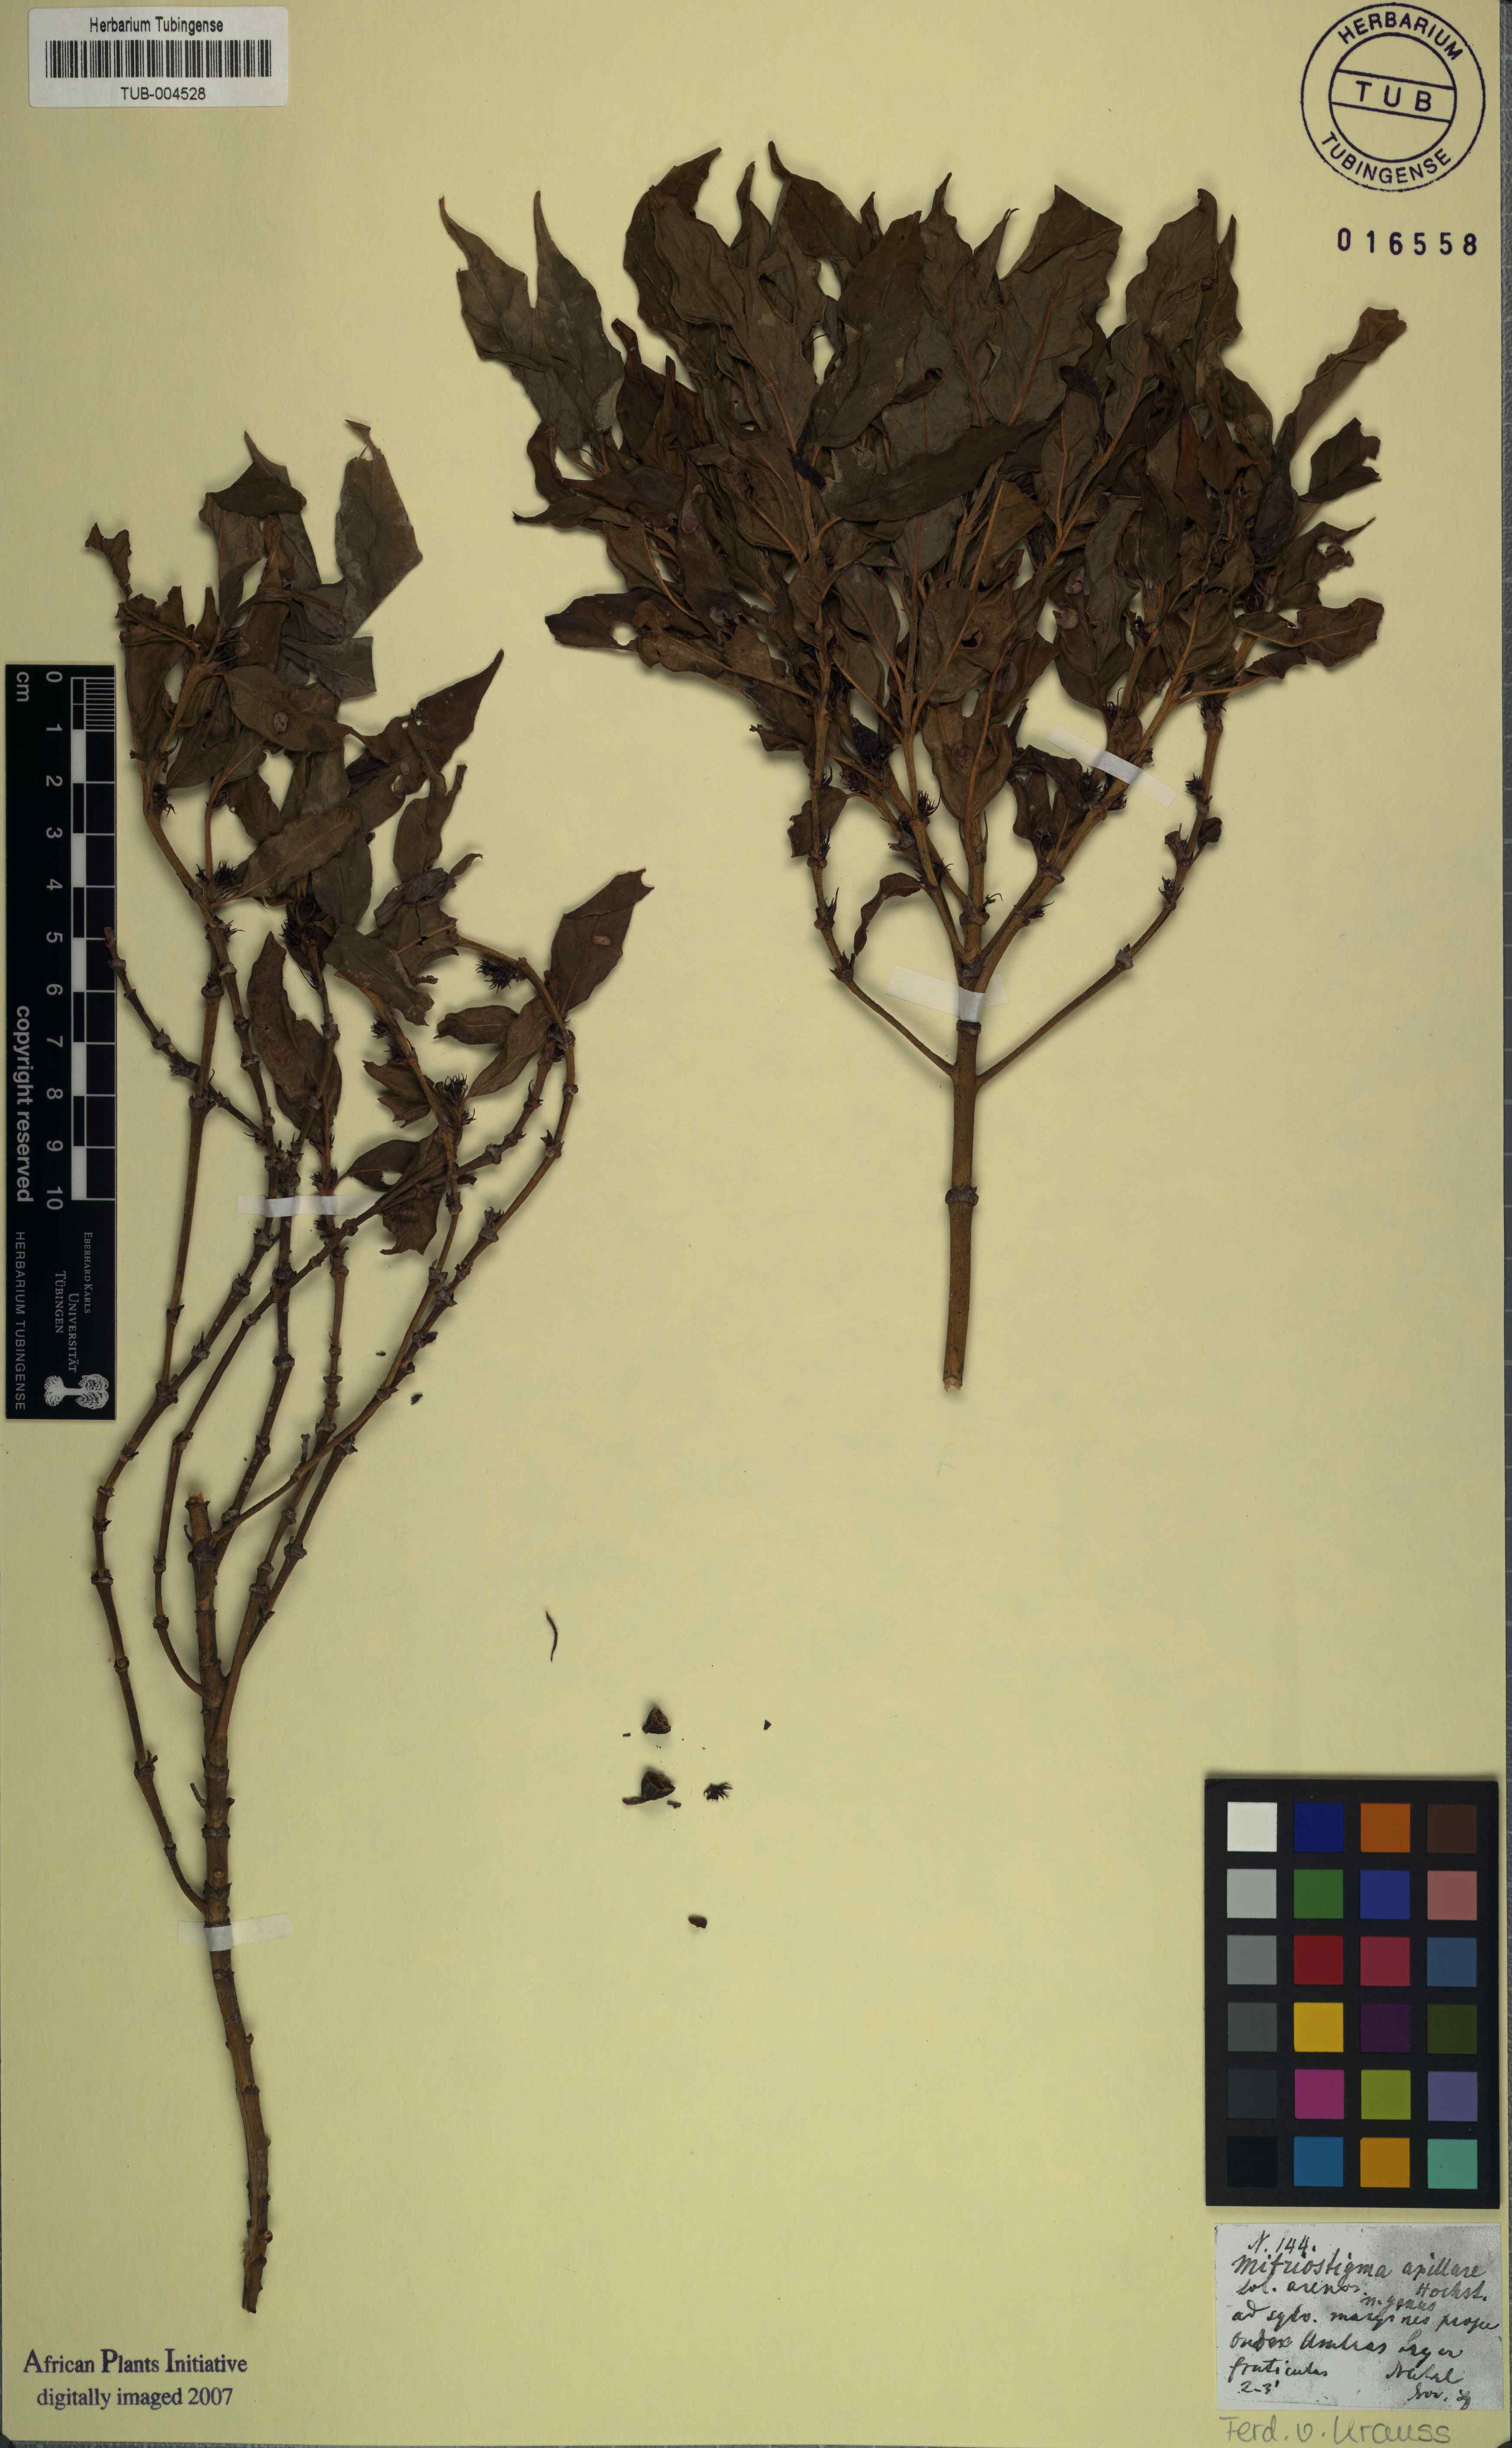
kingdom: Plantae
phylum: Tracheophyta
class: Magnoliopsida
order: Gentianales
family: Rubiaceae
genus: Mitriostigma
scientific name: Mitriostigma axillare
